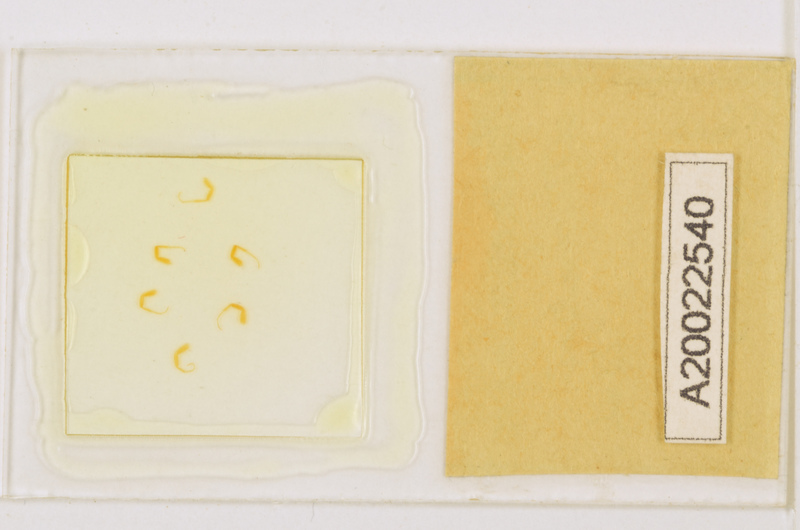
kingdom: Animalia
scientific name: Animalia
